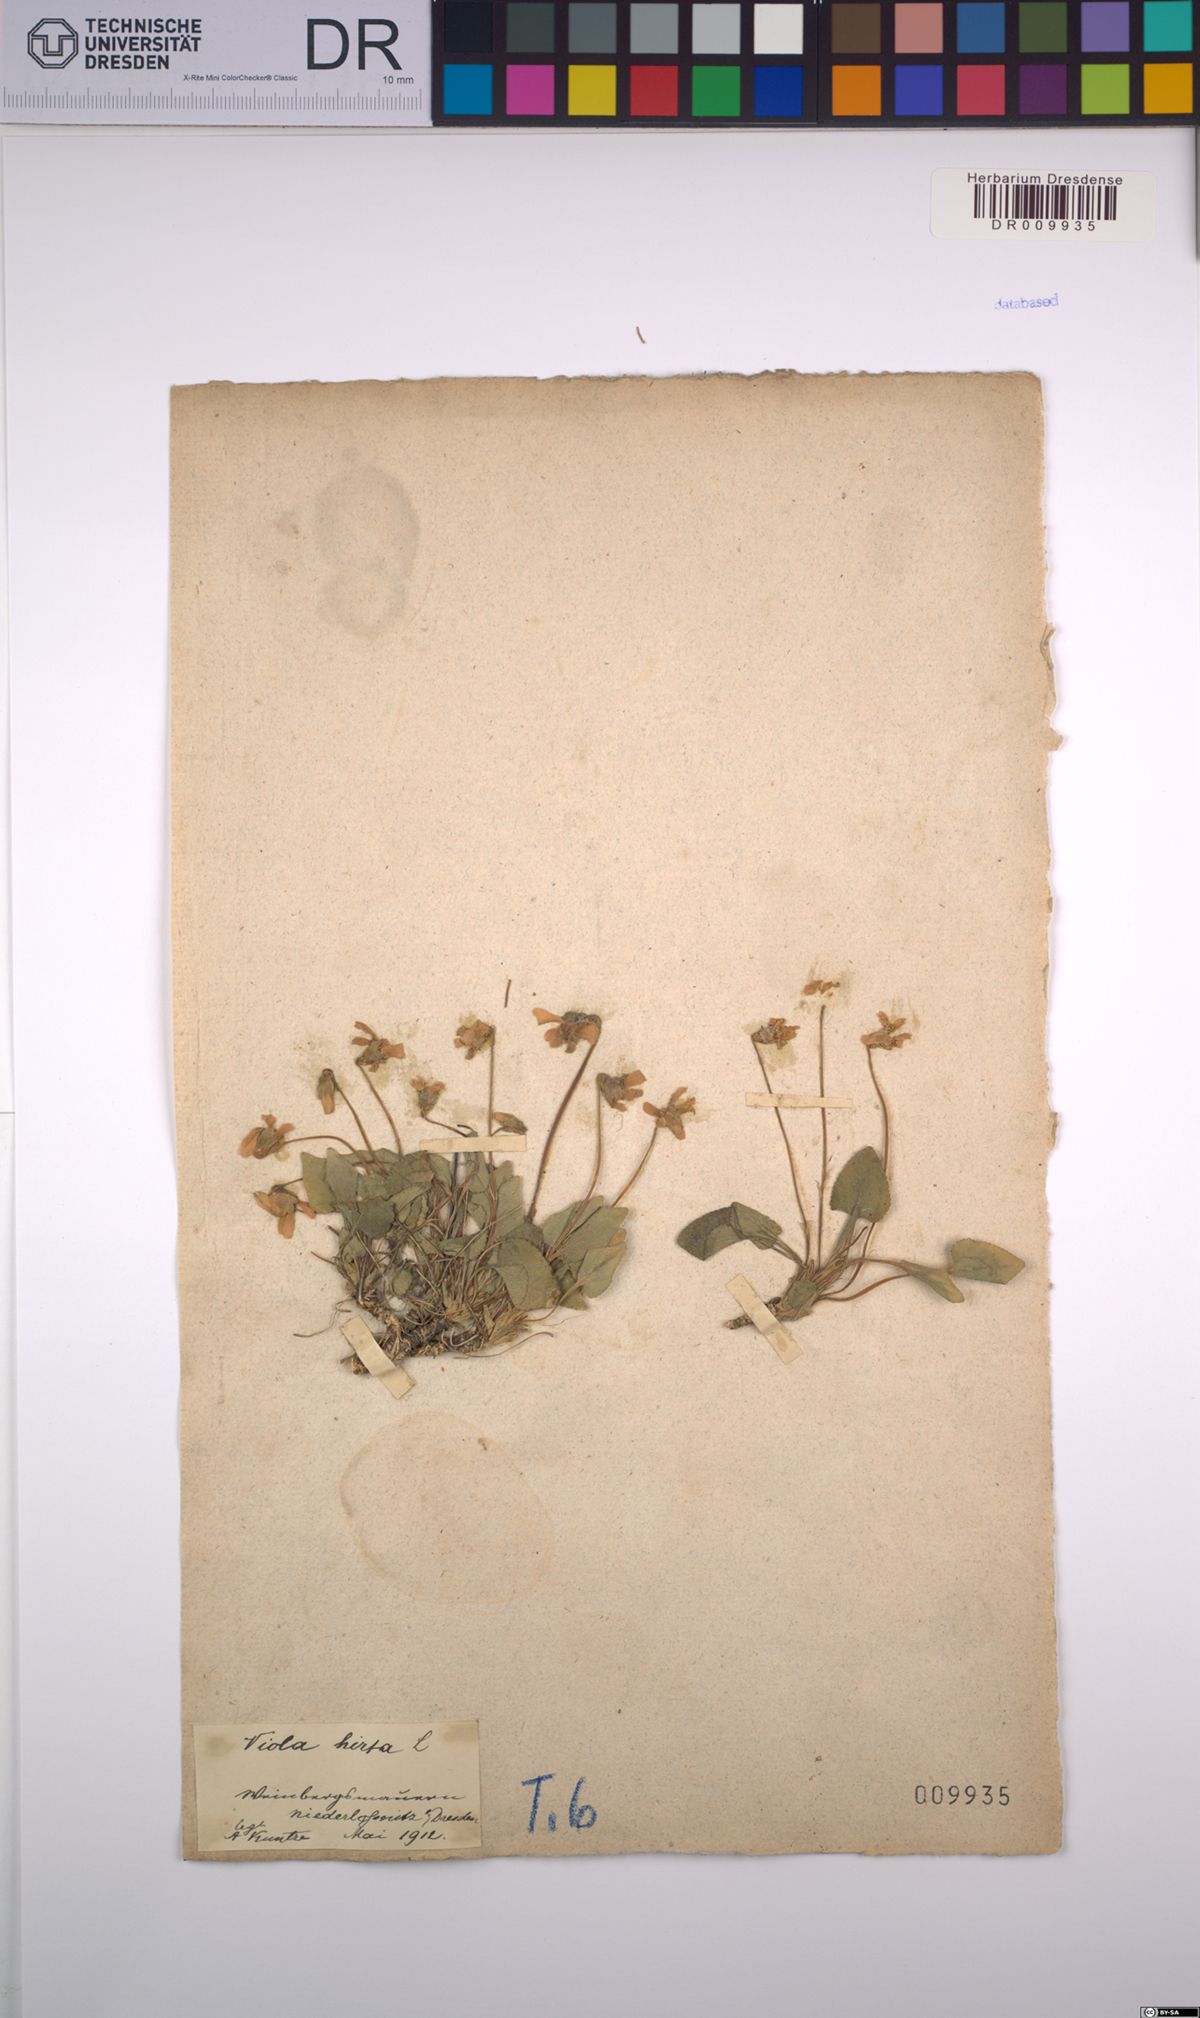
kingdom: Plantae
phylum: Tracheophyta
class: Magnoliopsida
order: Malpighiales
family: Violaceae
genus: Viola
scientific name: Viola hirta
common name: Hairy violet
